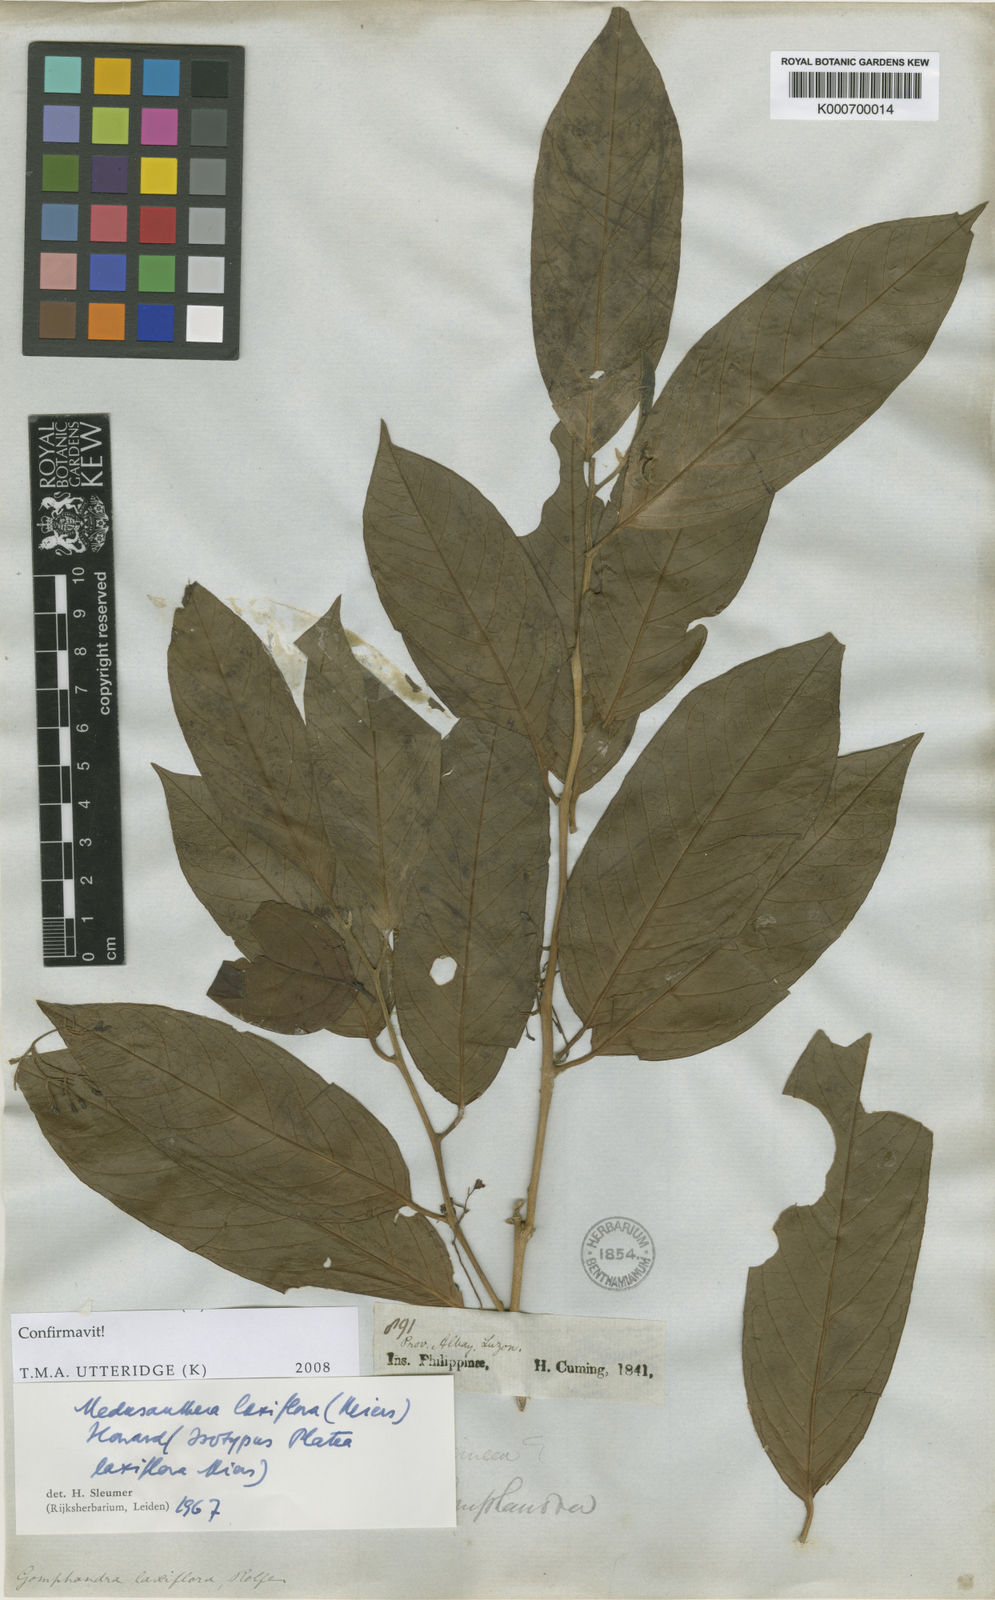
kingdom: Plantae
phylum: Tracheophyta
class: Magnoliopsida
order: Cardiopteridales
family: Stemonuraceae
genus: Medusanthera
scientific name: Medusanthera laxiflora
